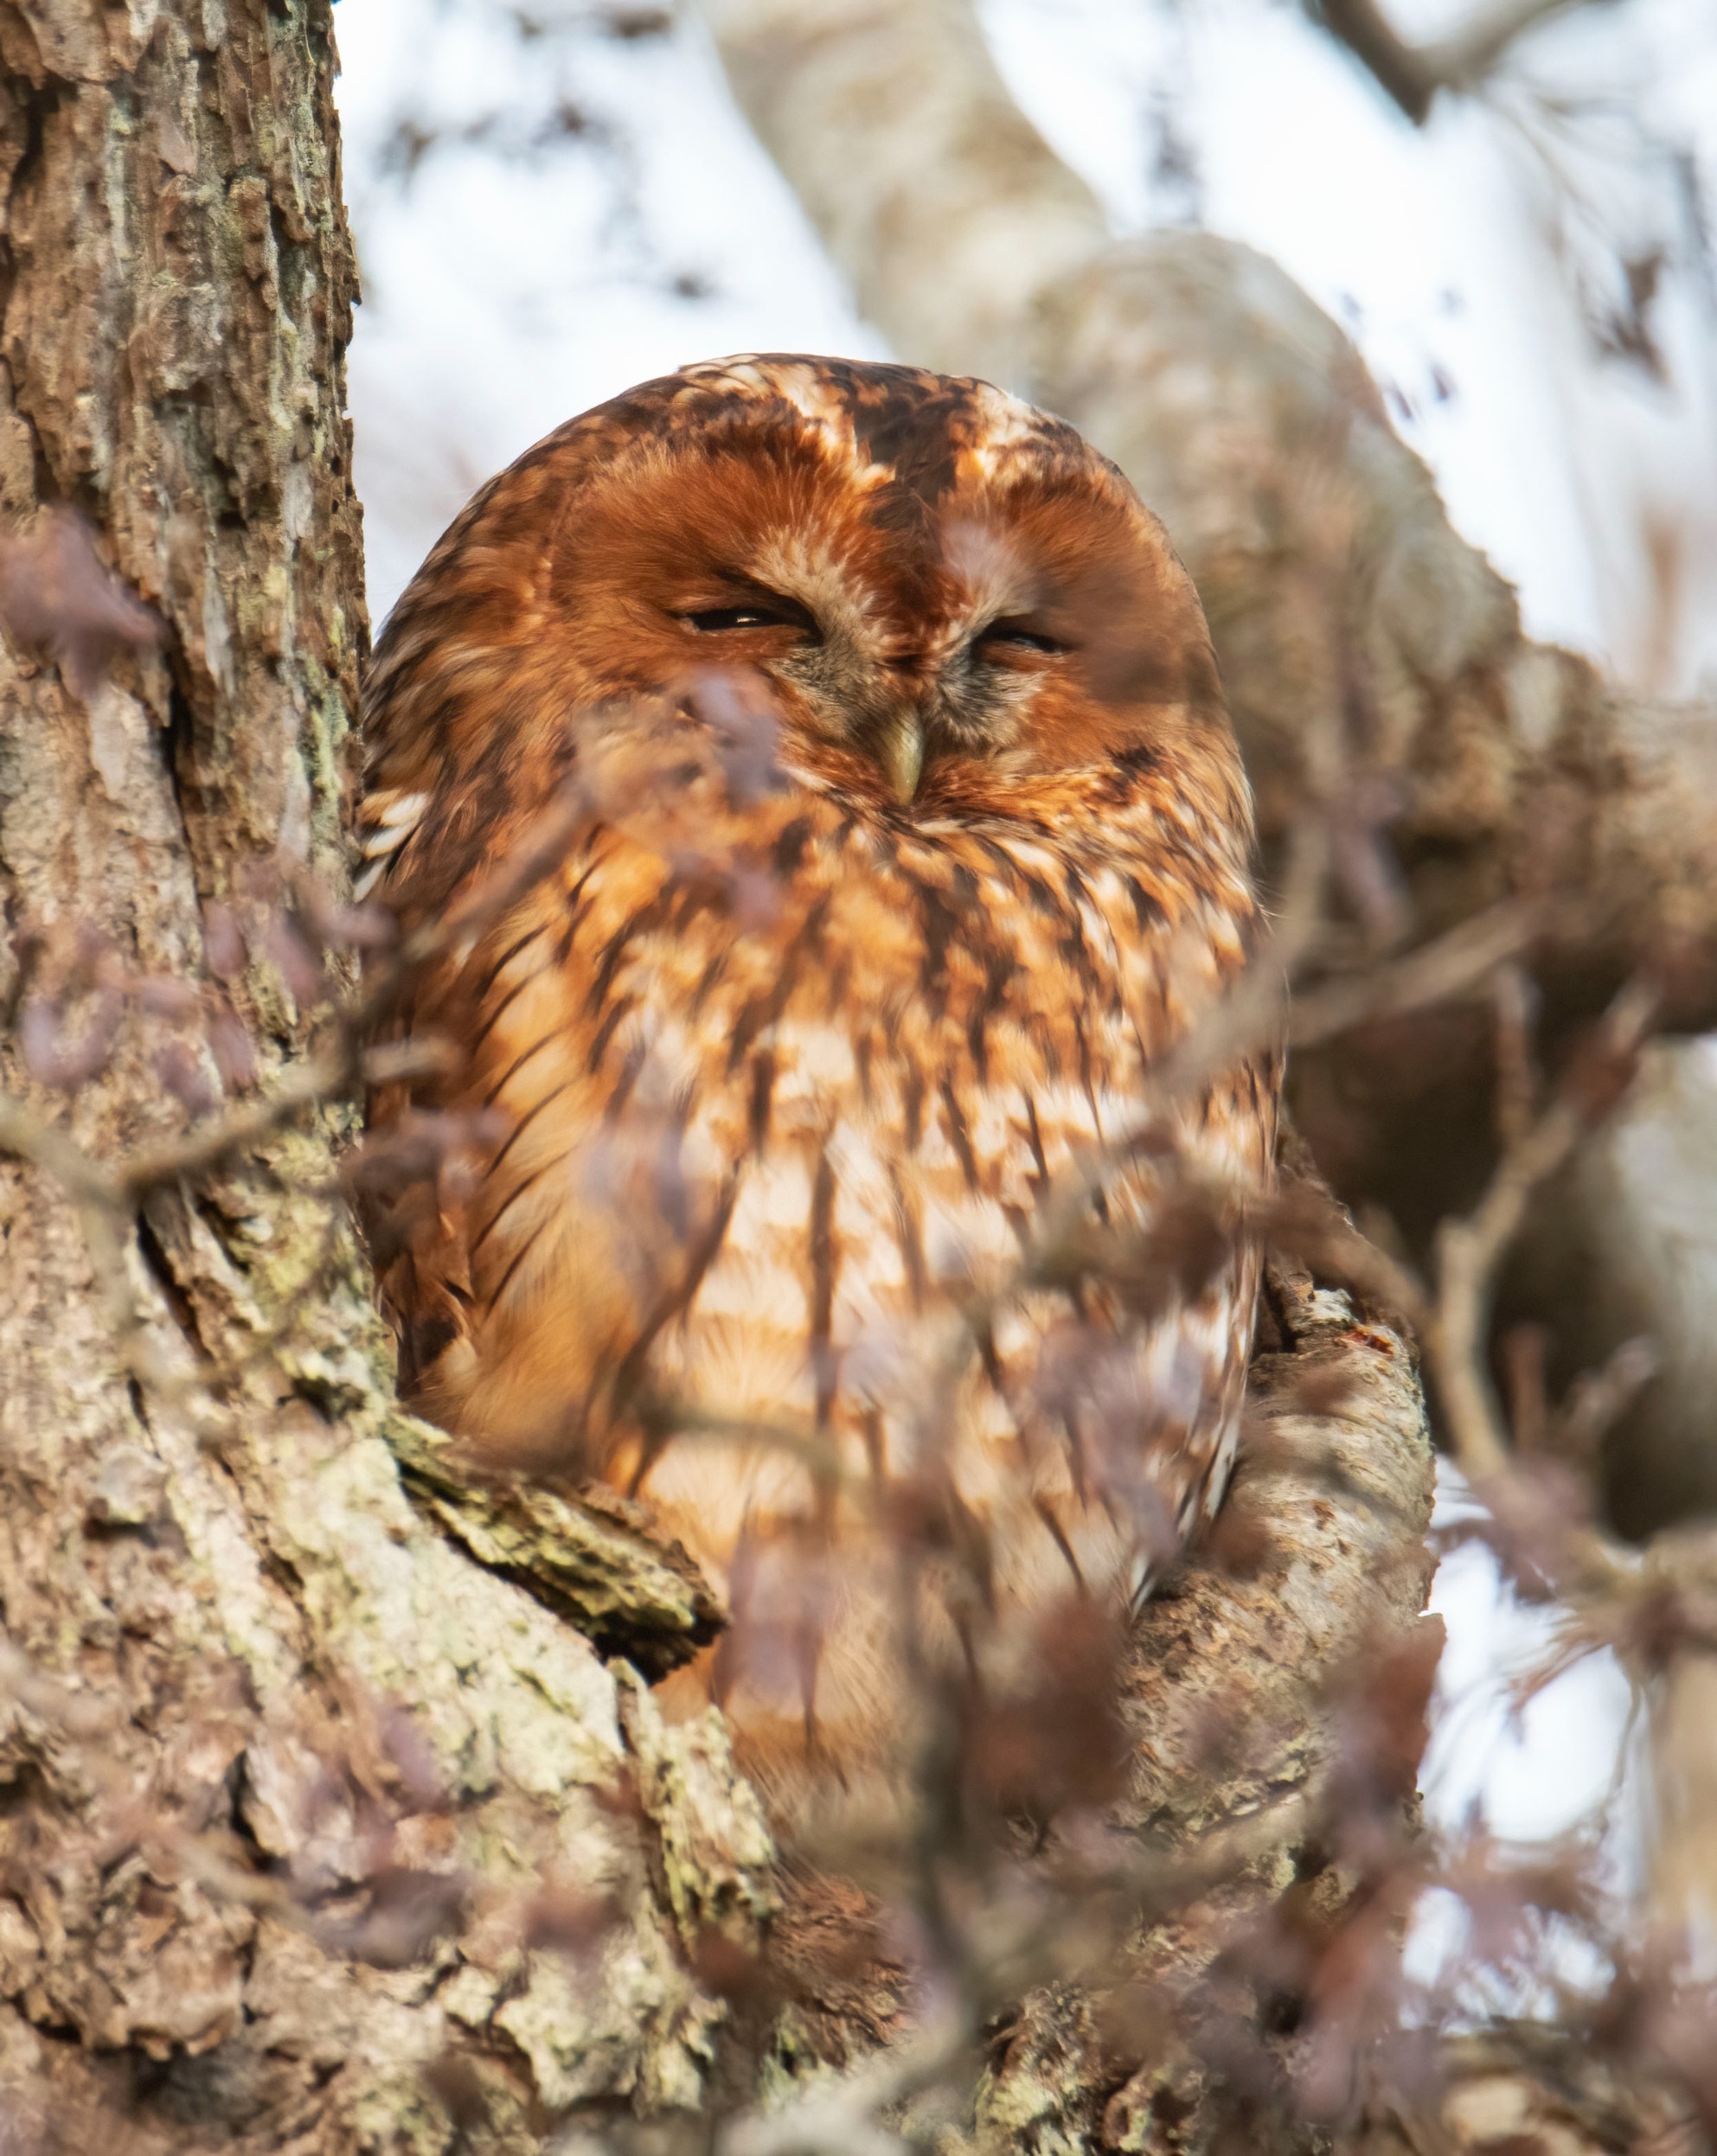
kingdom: Animalia
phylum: Chordata
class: Aves
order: Strigiformes
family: Strigidae
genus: Strix
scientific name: Strix aluco
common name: Natugle
